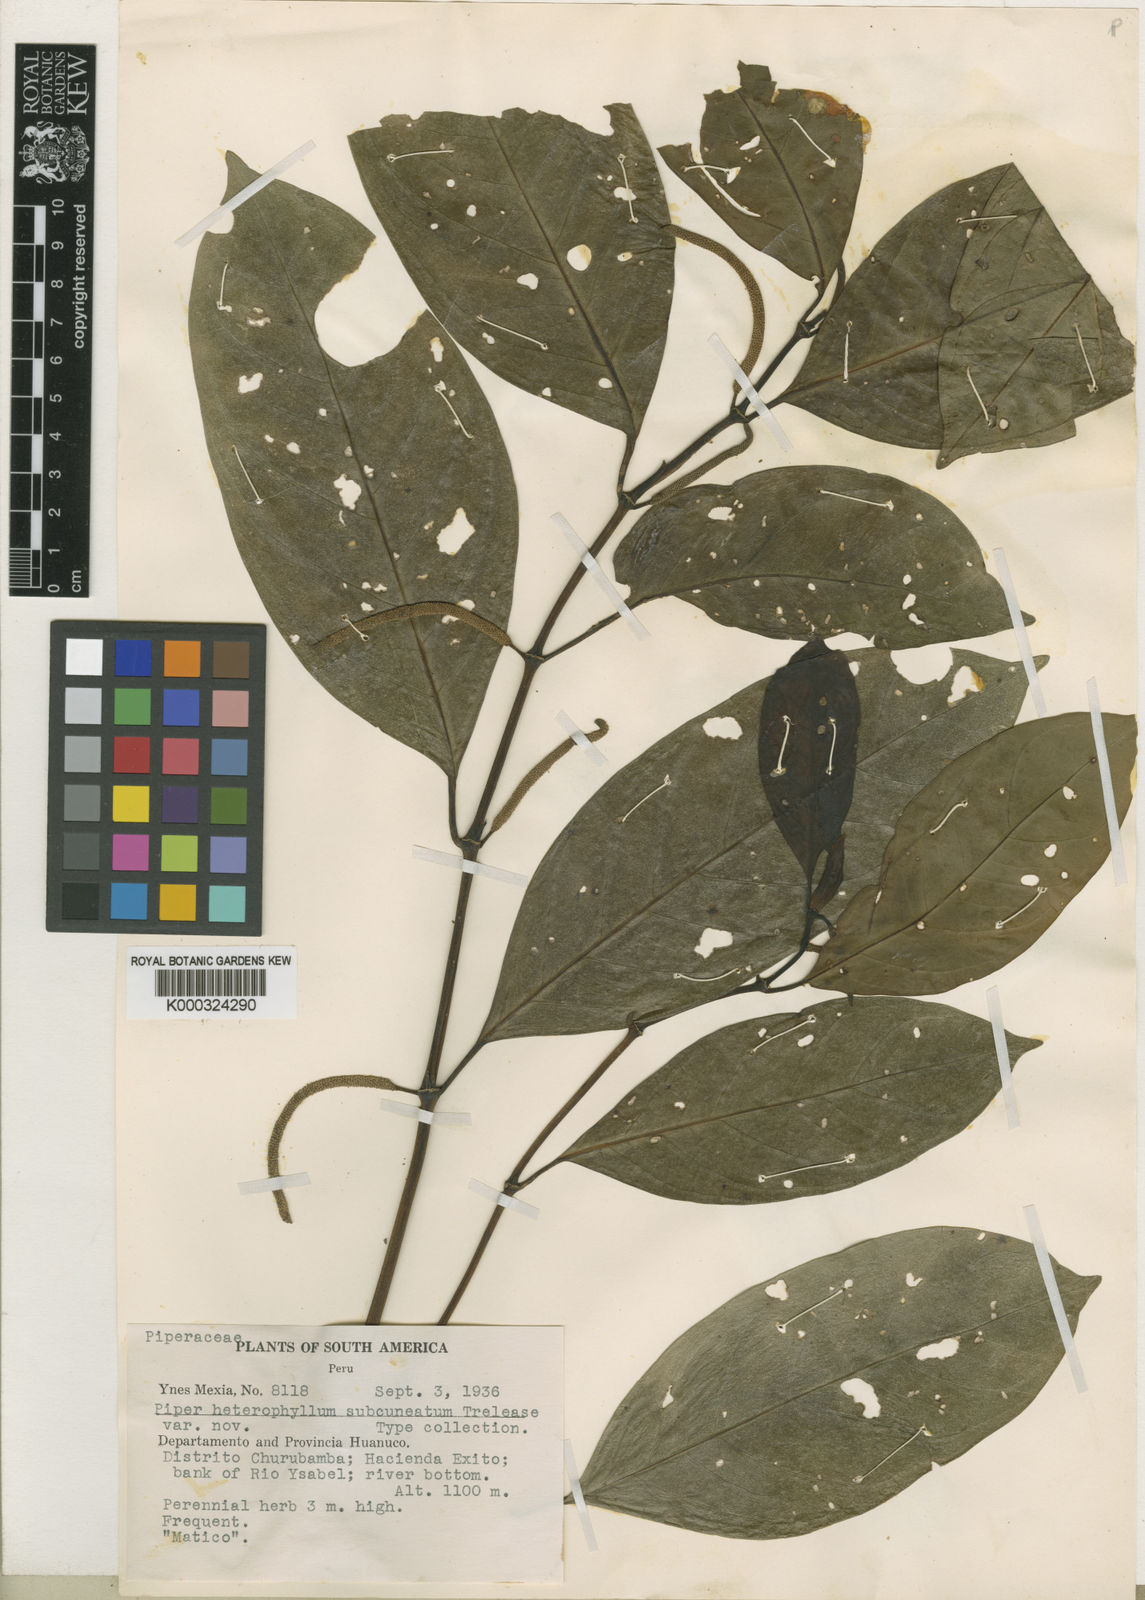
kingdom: Plantae
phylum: Tracheophyta
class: Magnoliopsida
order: Piperales
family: Piperaceae
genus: Piper
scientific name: Piper heterophyllum
